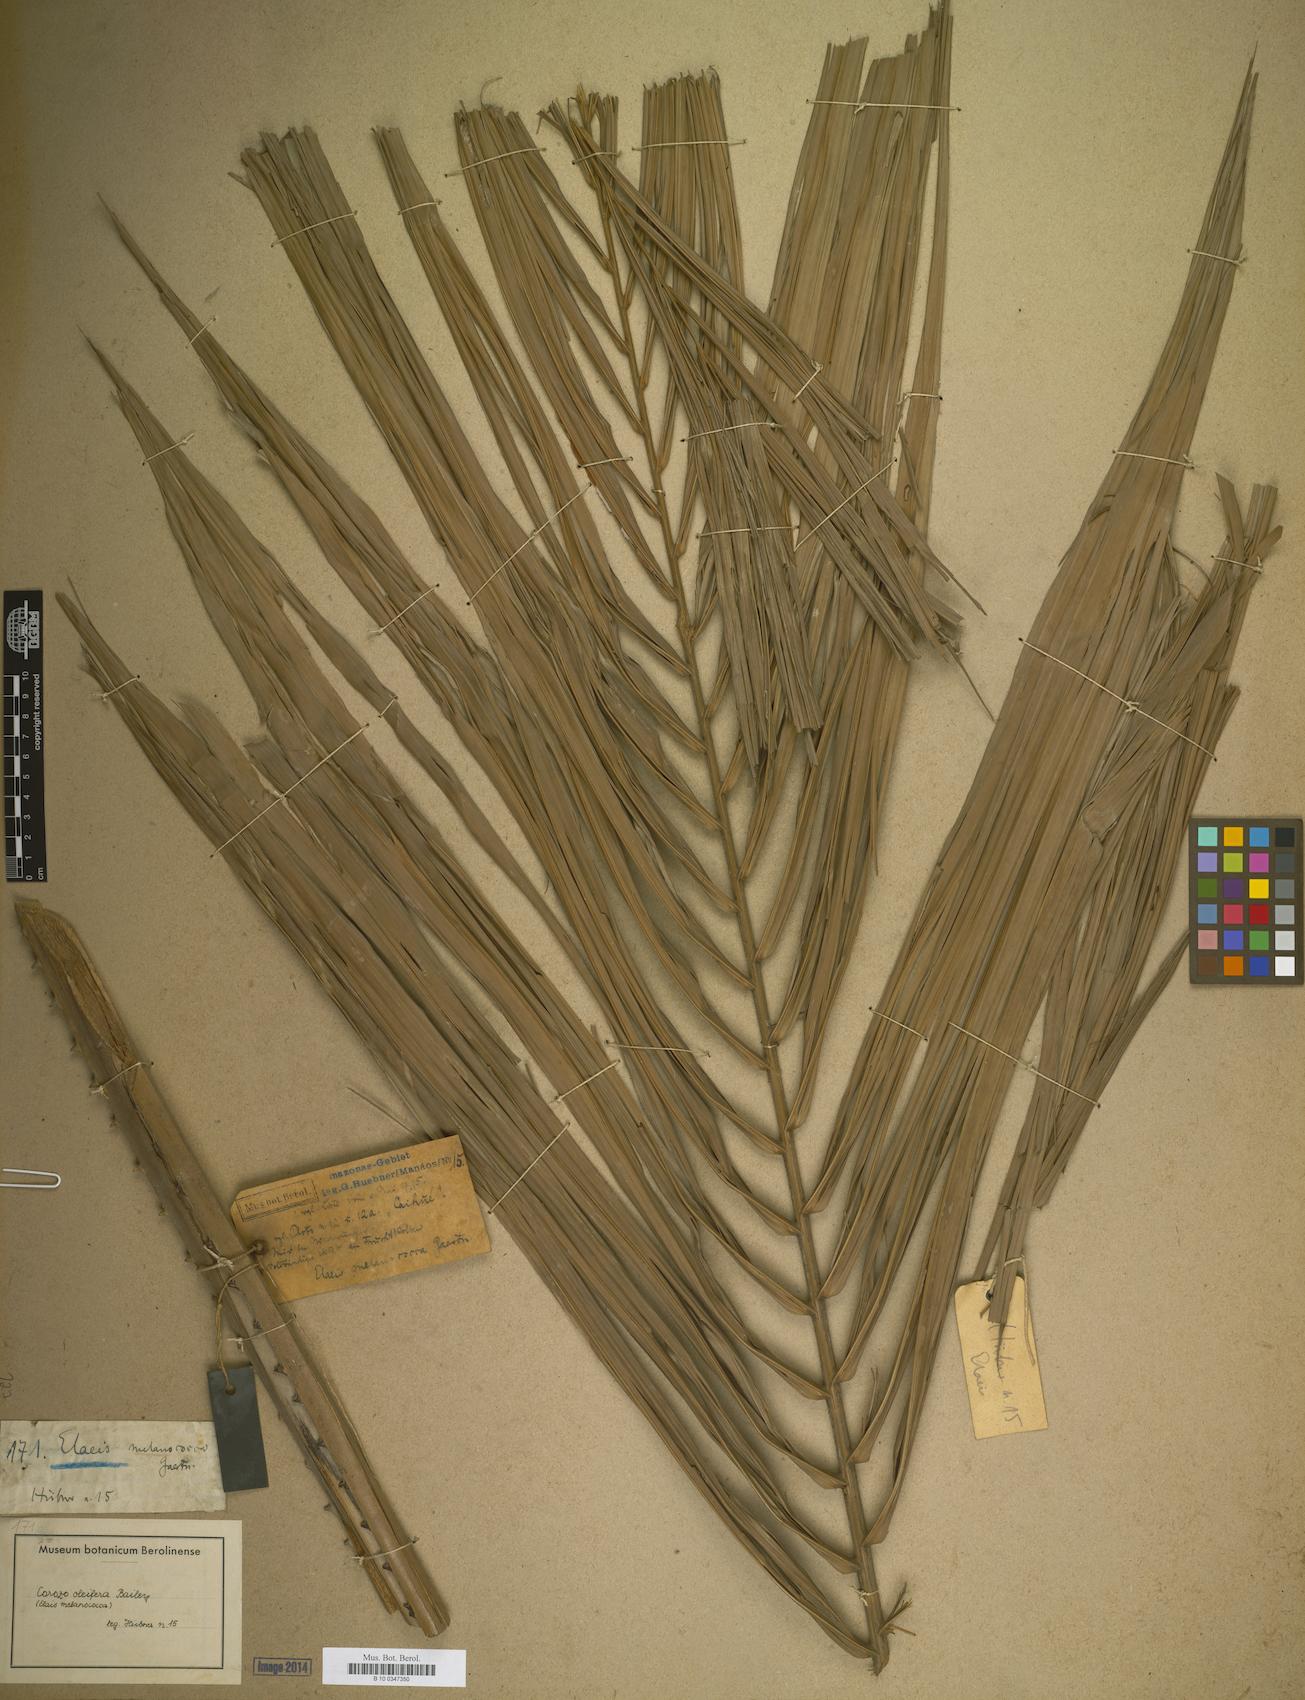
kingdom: Plantae
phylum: Tracheophyta
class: Liliopsida
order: Arecales
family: Arecaceae
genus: Elaeis
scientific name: Elaeis
